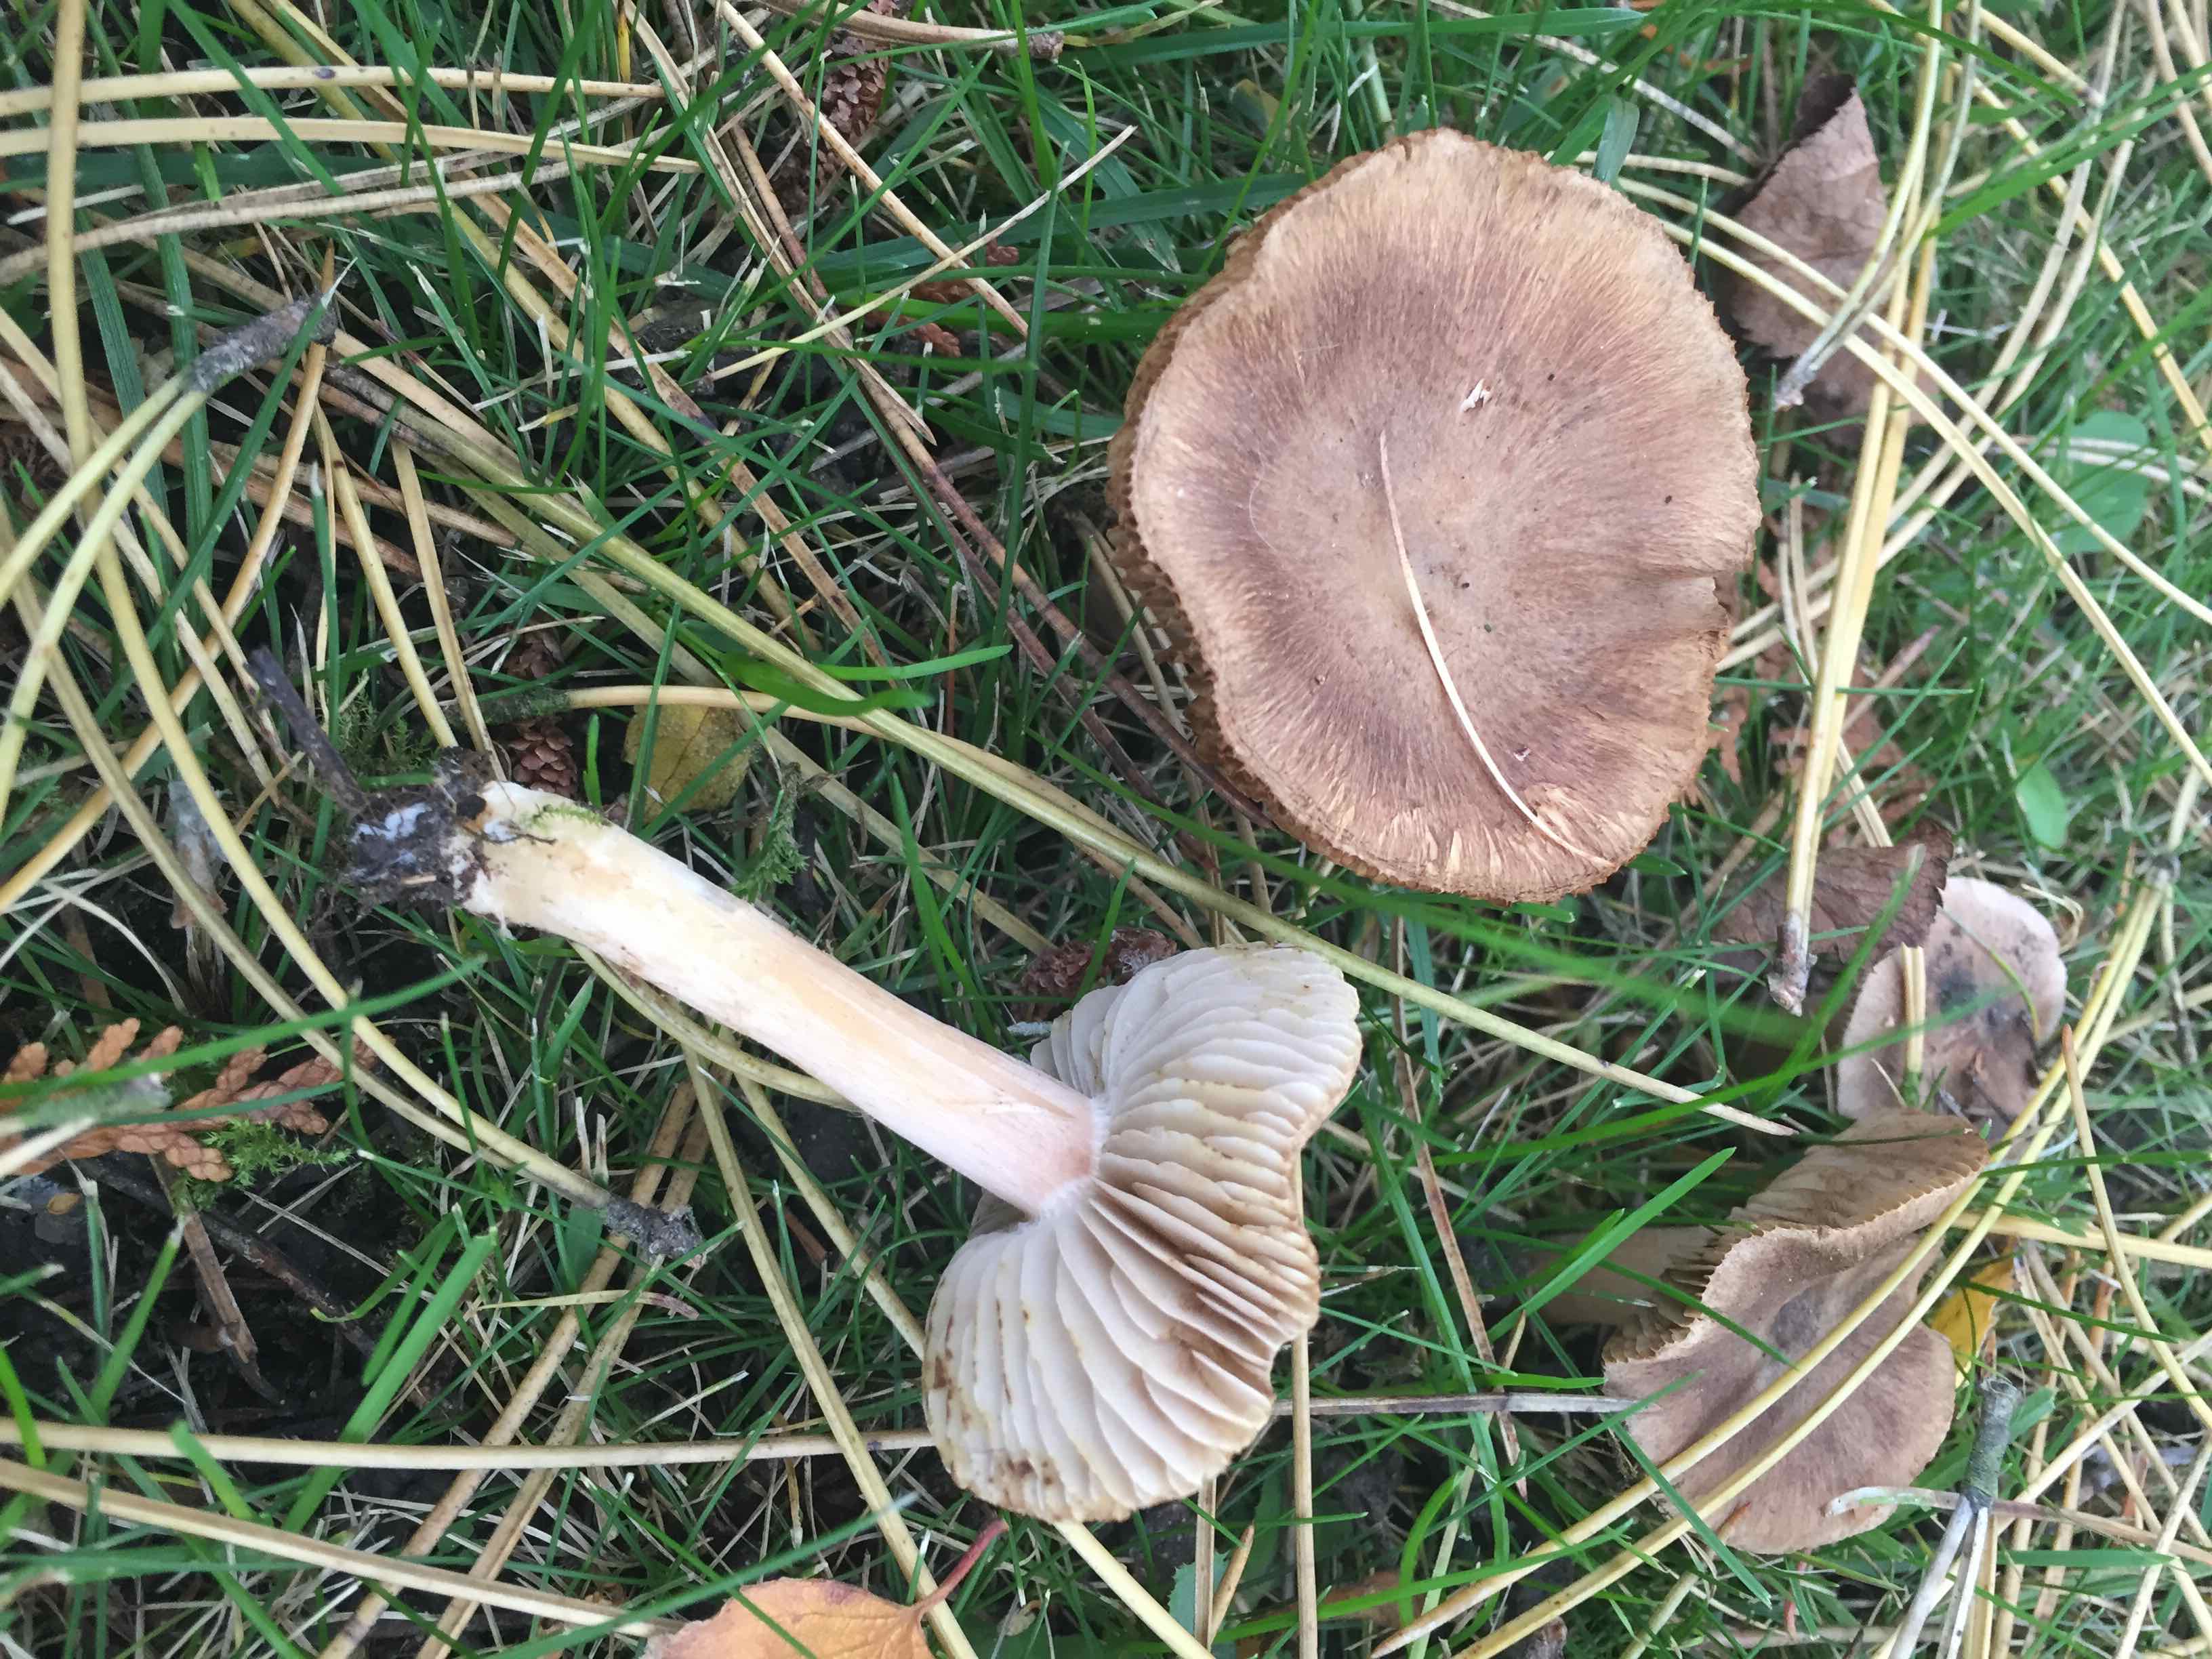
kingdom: Fungi
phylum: Basidiomycota
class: Agaricomycetes
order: Agaricales
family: Inocybaceae
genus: Inocybe
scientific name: Inocybe
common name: trævlhat
